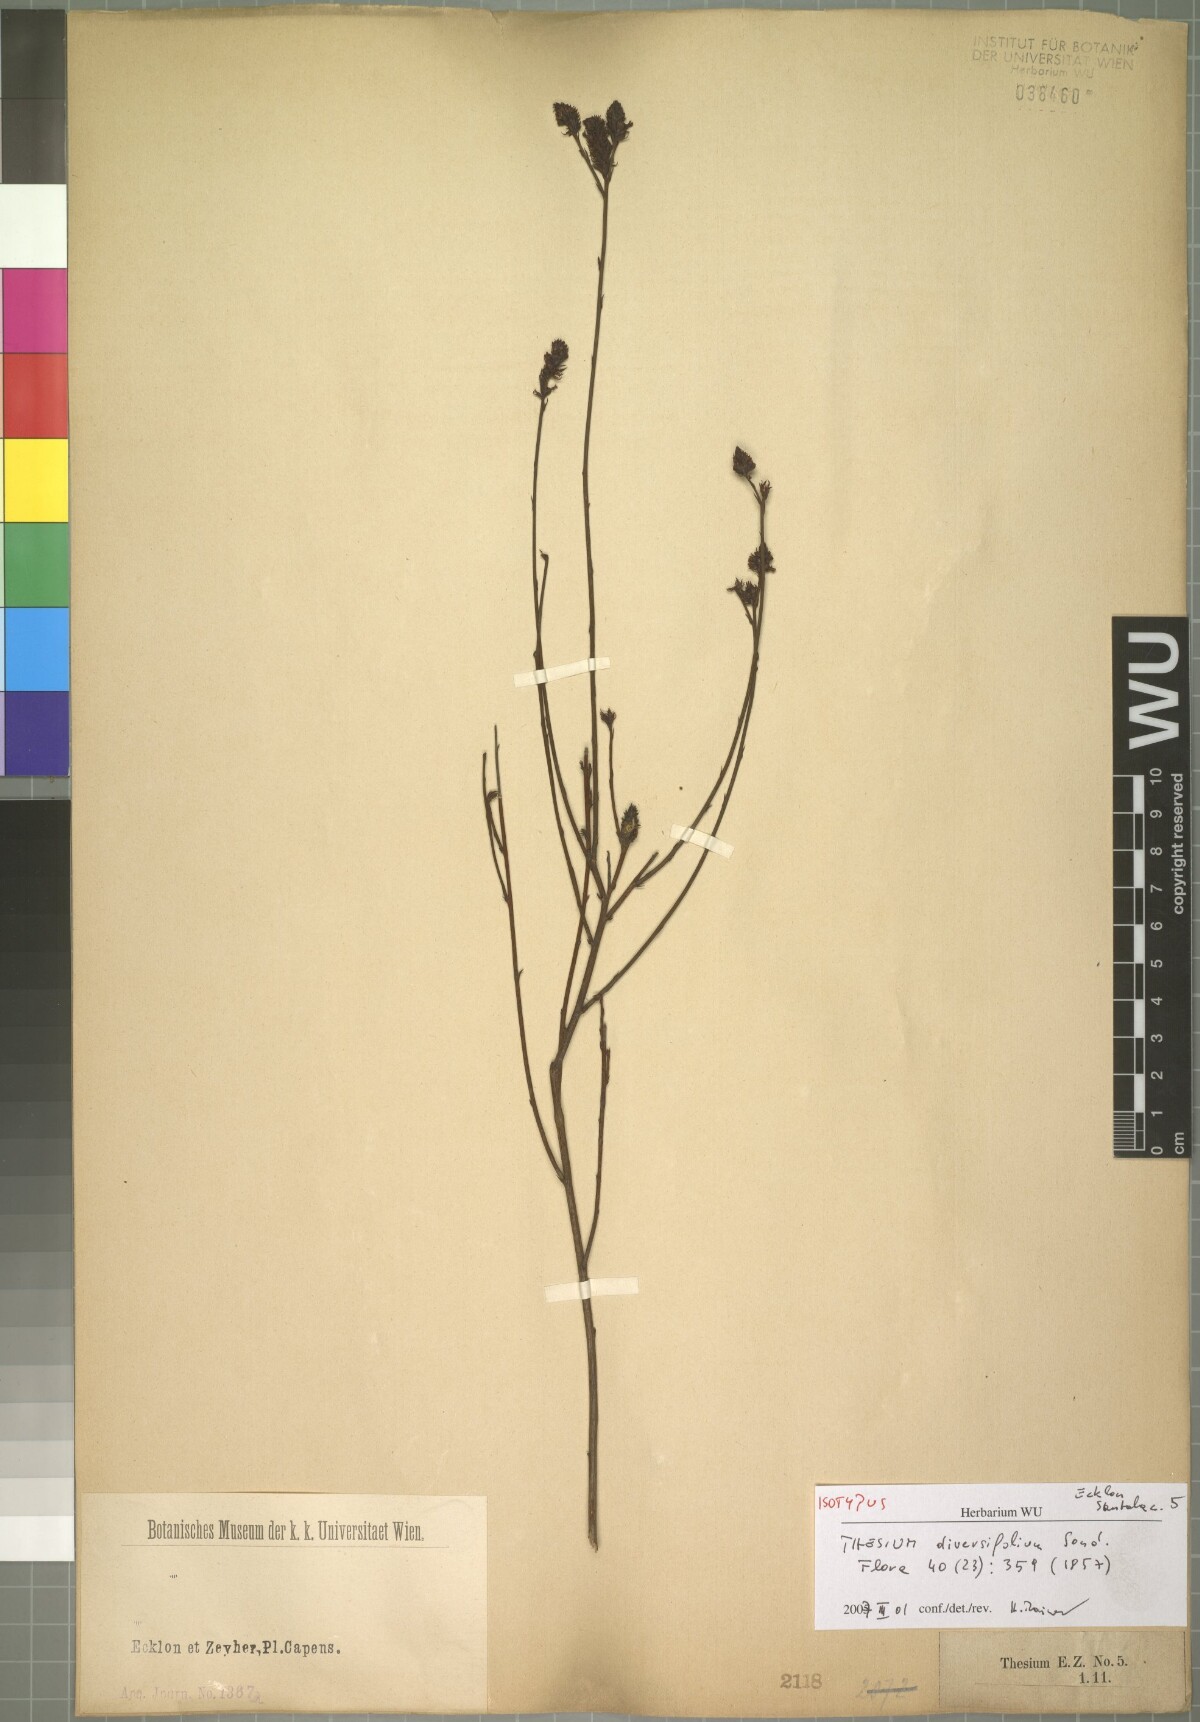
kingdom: Plantae
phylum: Tracheophyta
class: Magnoliopsida
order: Santalales
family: Thesiaceae
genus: Thesium
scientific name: Thesium diversifolium
